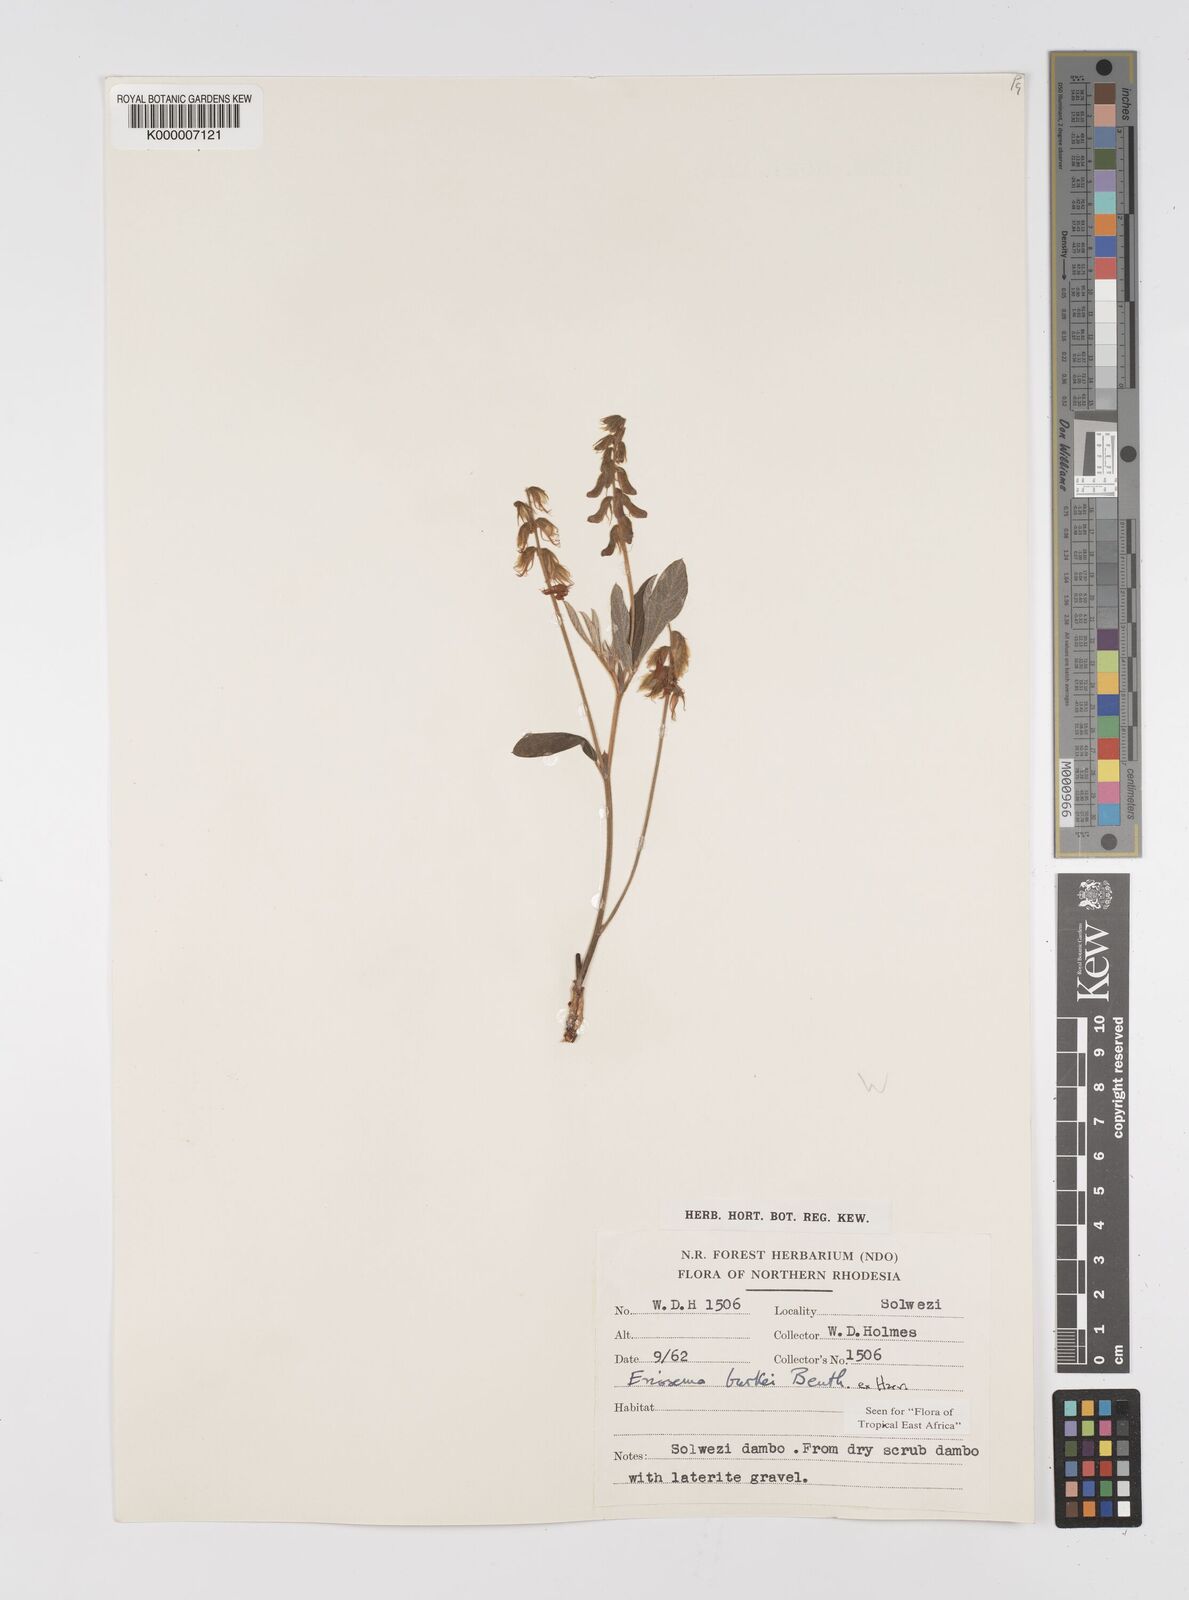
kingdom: Plantae
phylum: Tracheophyta
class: Magnoliopsida
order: Fabales
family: Fabaceae
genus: Eriosema
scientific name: Eriosema burkei
